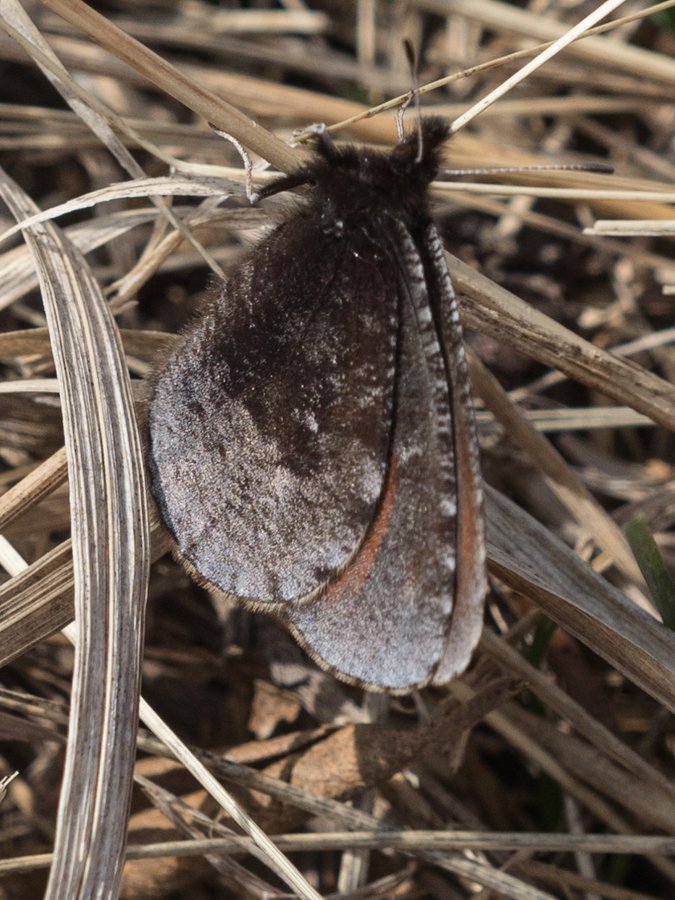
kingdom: Animalia
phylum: Arthropoda
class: Insecta
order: Lepidoptera
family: Nymphalidae
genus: Erebia
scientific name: Erebia discoidalis
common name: Red-disked Alpine
